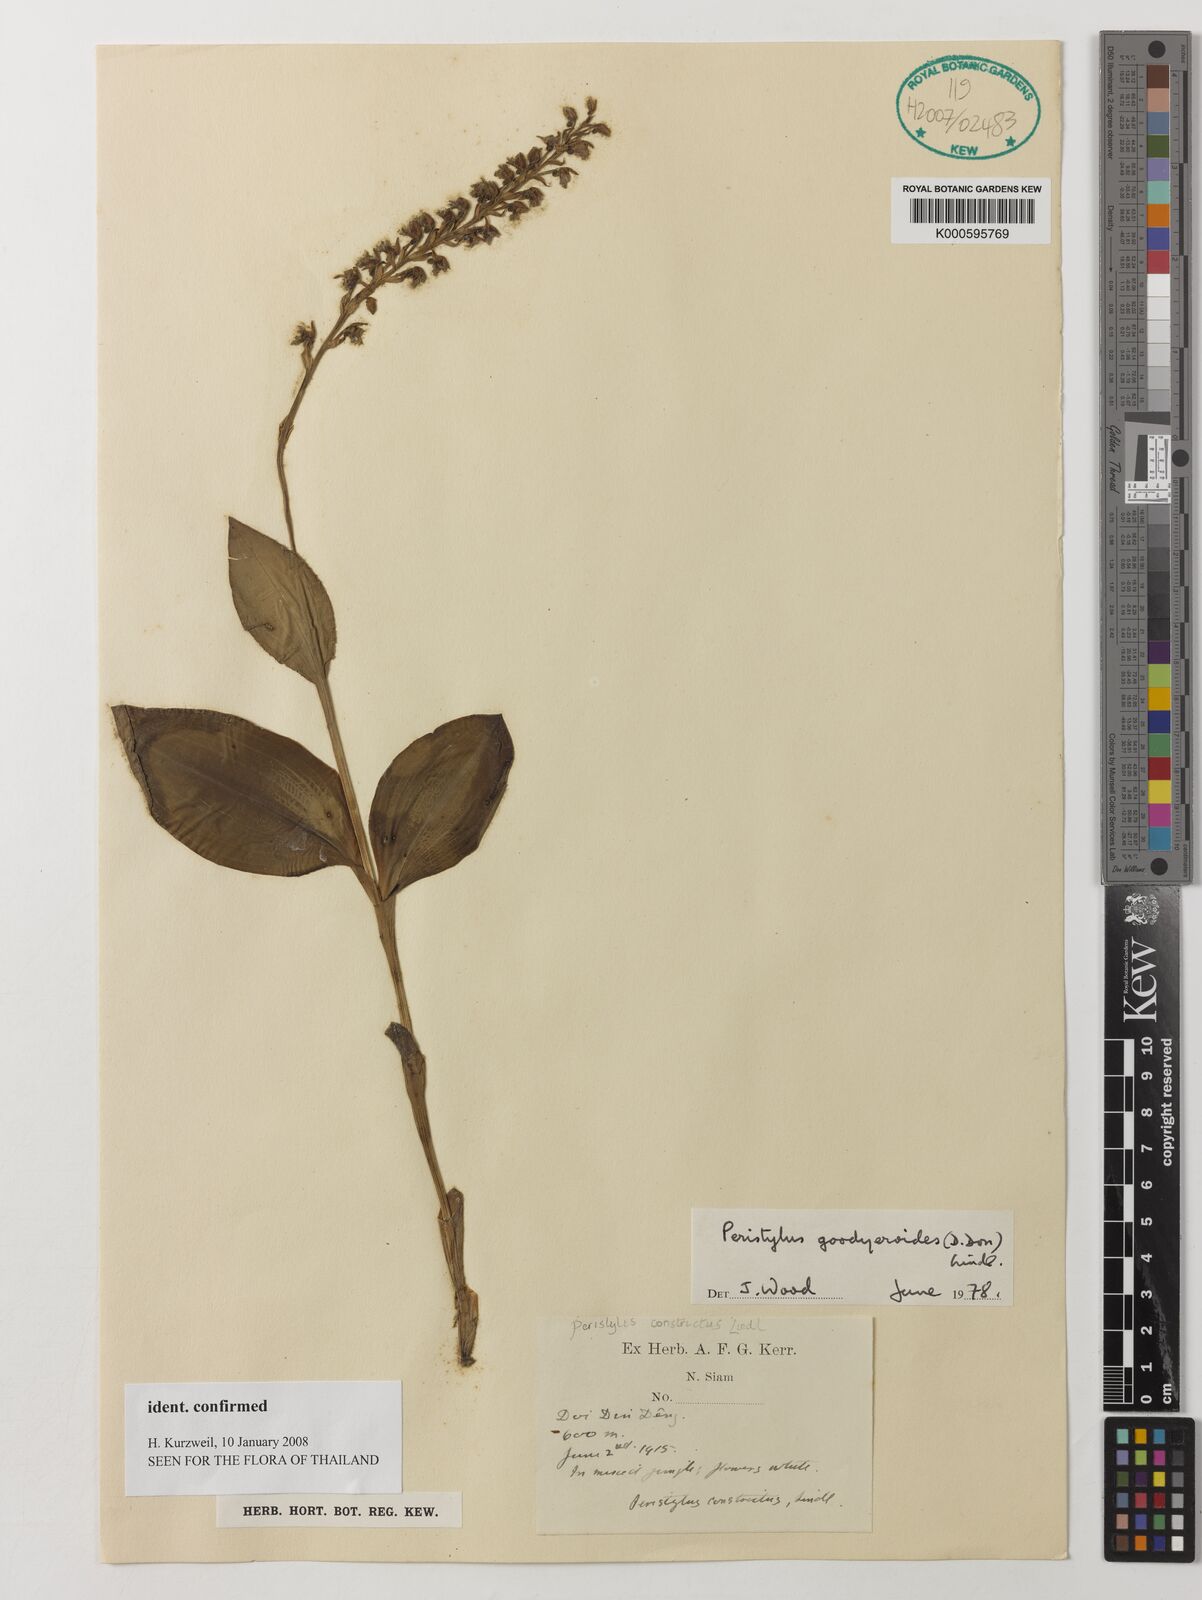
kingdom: Plantae
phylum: Tracheophyta
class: Liliopsida
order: Asparagales
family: Orchidaceae
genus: Peristylus
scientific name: Peristylus goodyeroides
